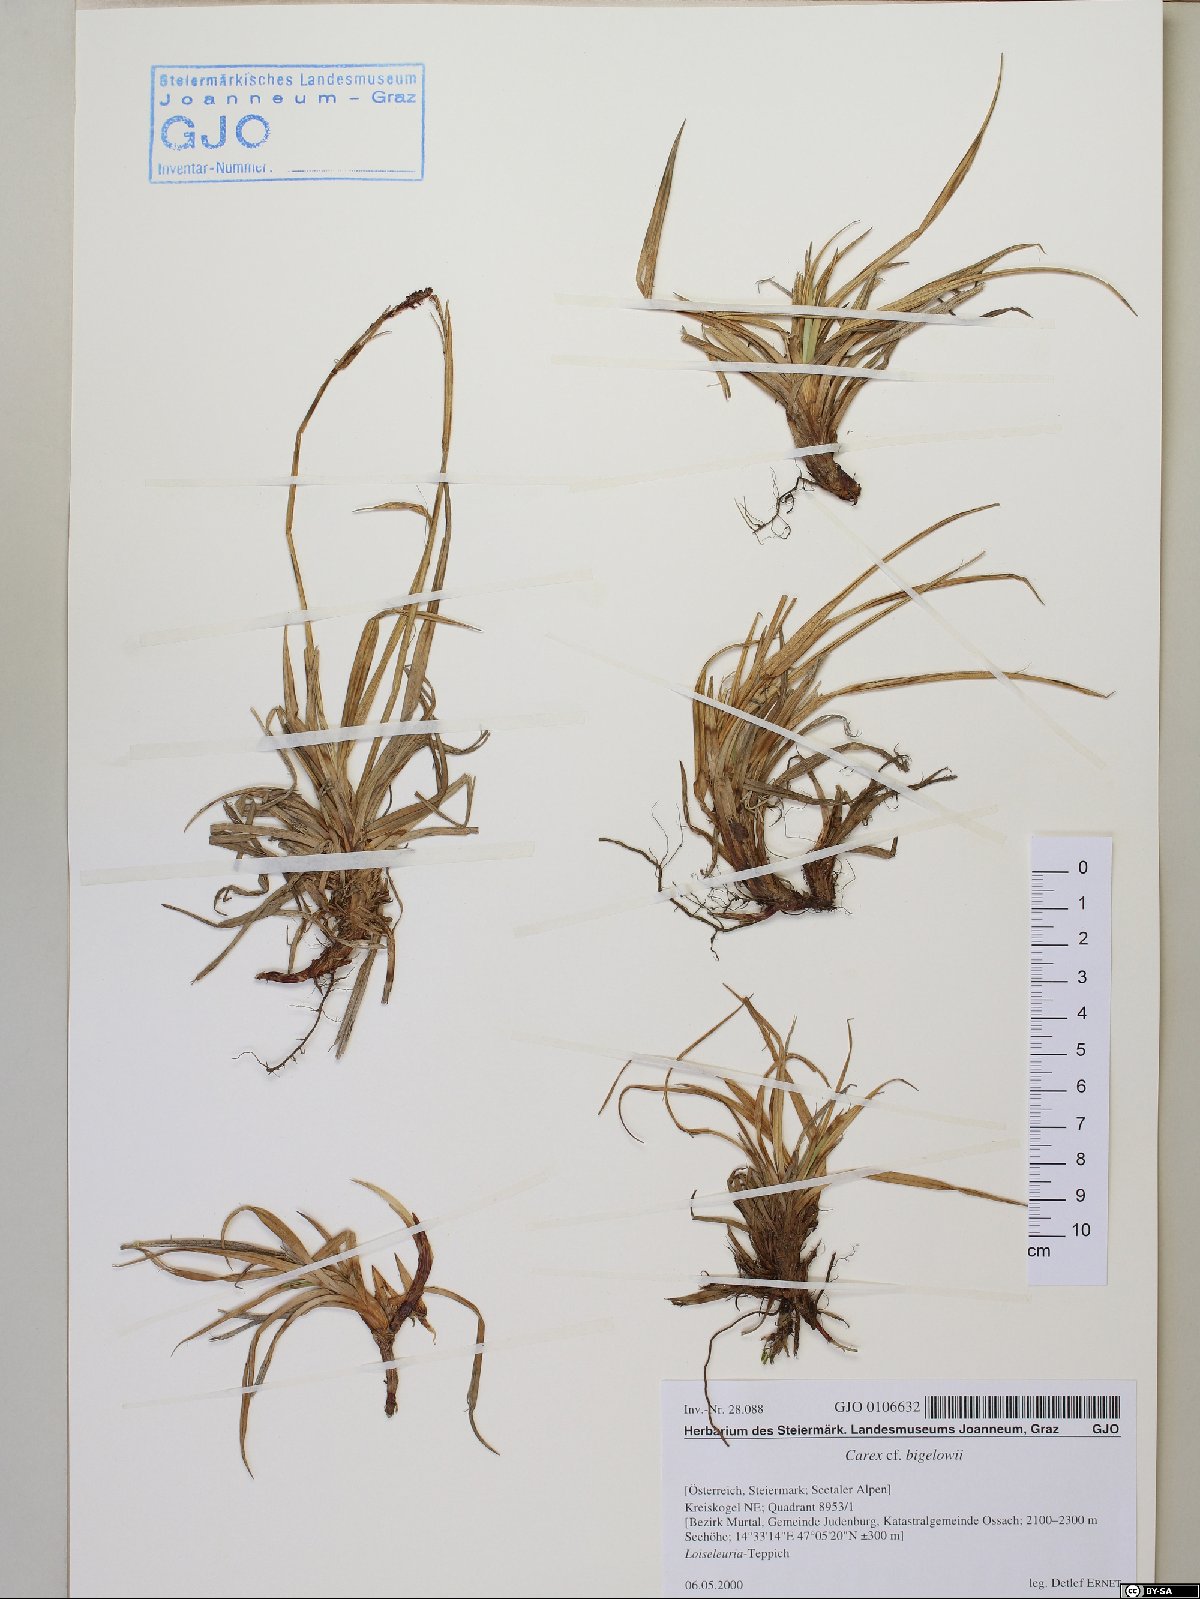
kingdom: Plantae
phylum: Tracheophyta
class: Liliopsida
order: Poales
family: Cyperaceae
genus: Carex
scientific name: Carex bigelowii
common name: Stiff sedge
